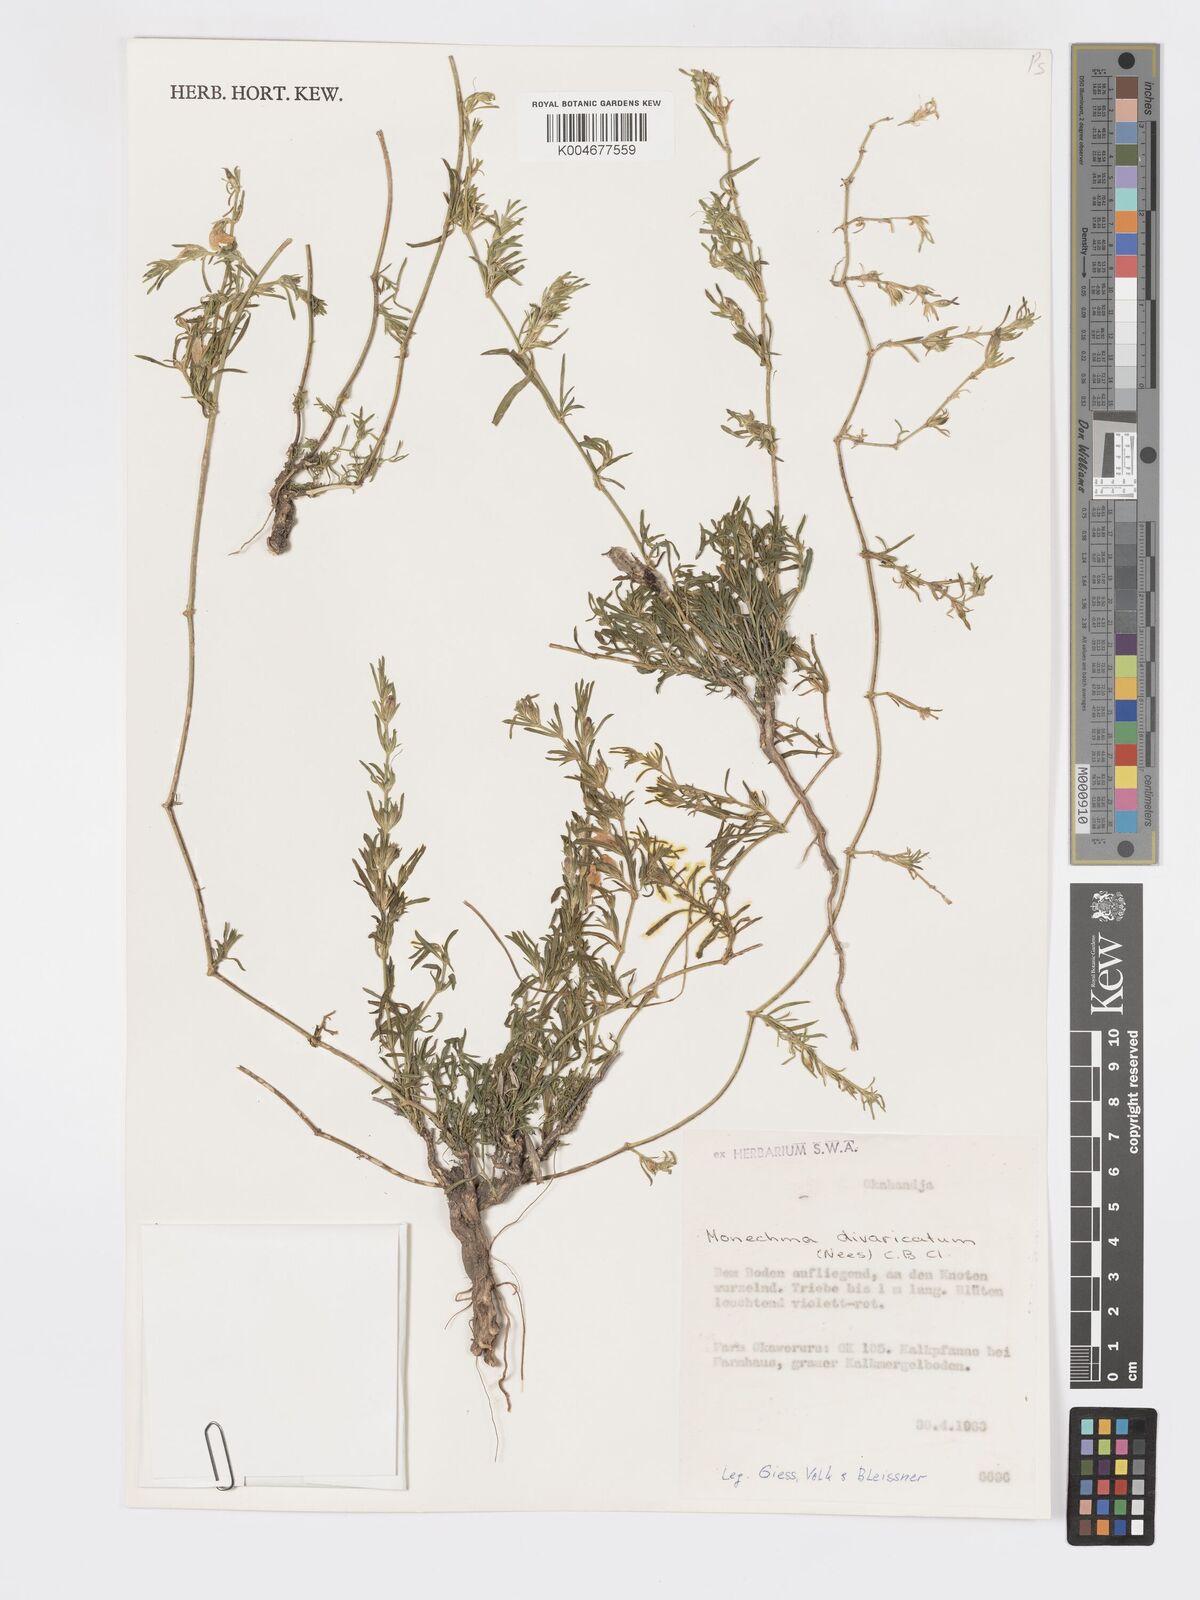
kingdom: Plantae
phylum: Tracheophyta
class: Magnoliopsida
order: Lamiales
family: Acanthaceae
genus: Pogonospermum
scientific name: Pogonospermum
